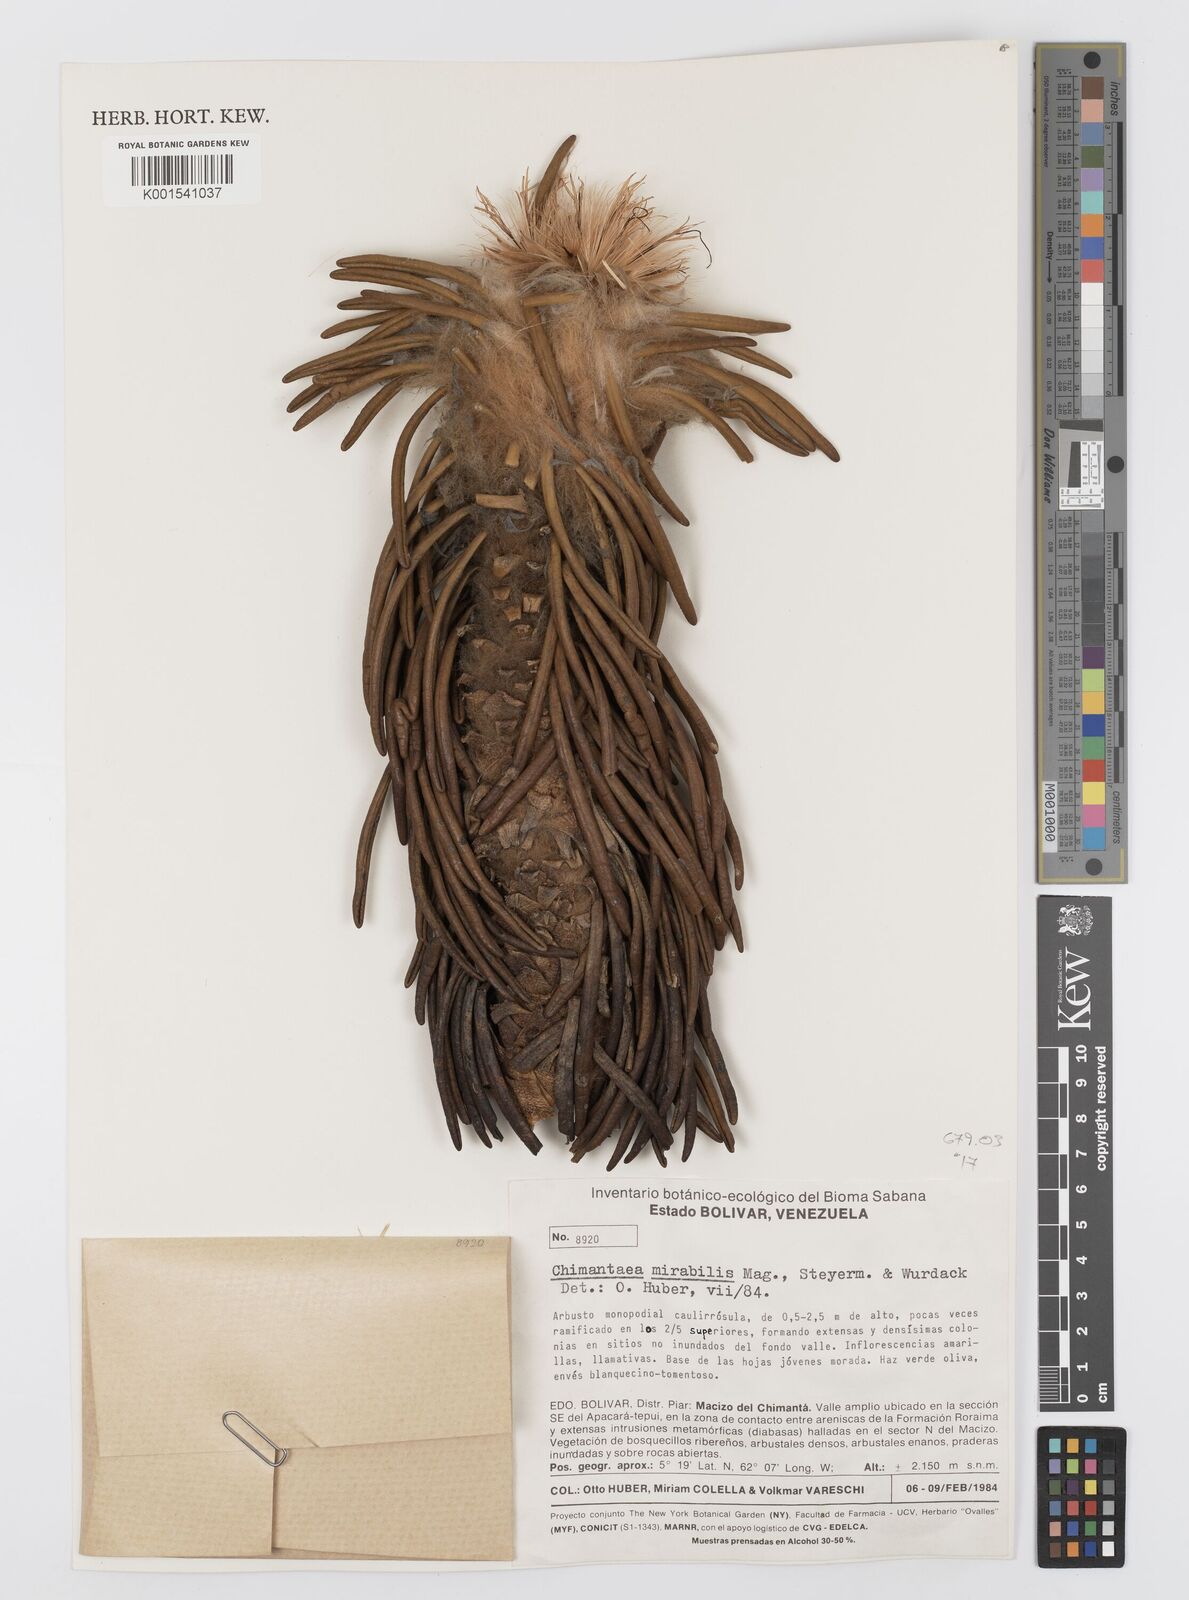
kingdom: Plantae
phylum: Tracheophyta
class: Magnoliopsida
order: Asterales
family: Asteraceae
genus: Chimantaea
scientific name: Chimantaea mirabilis
